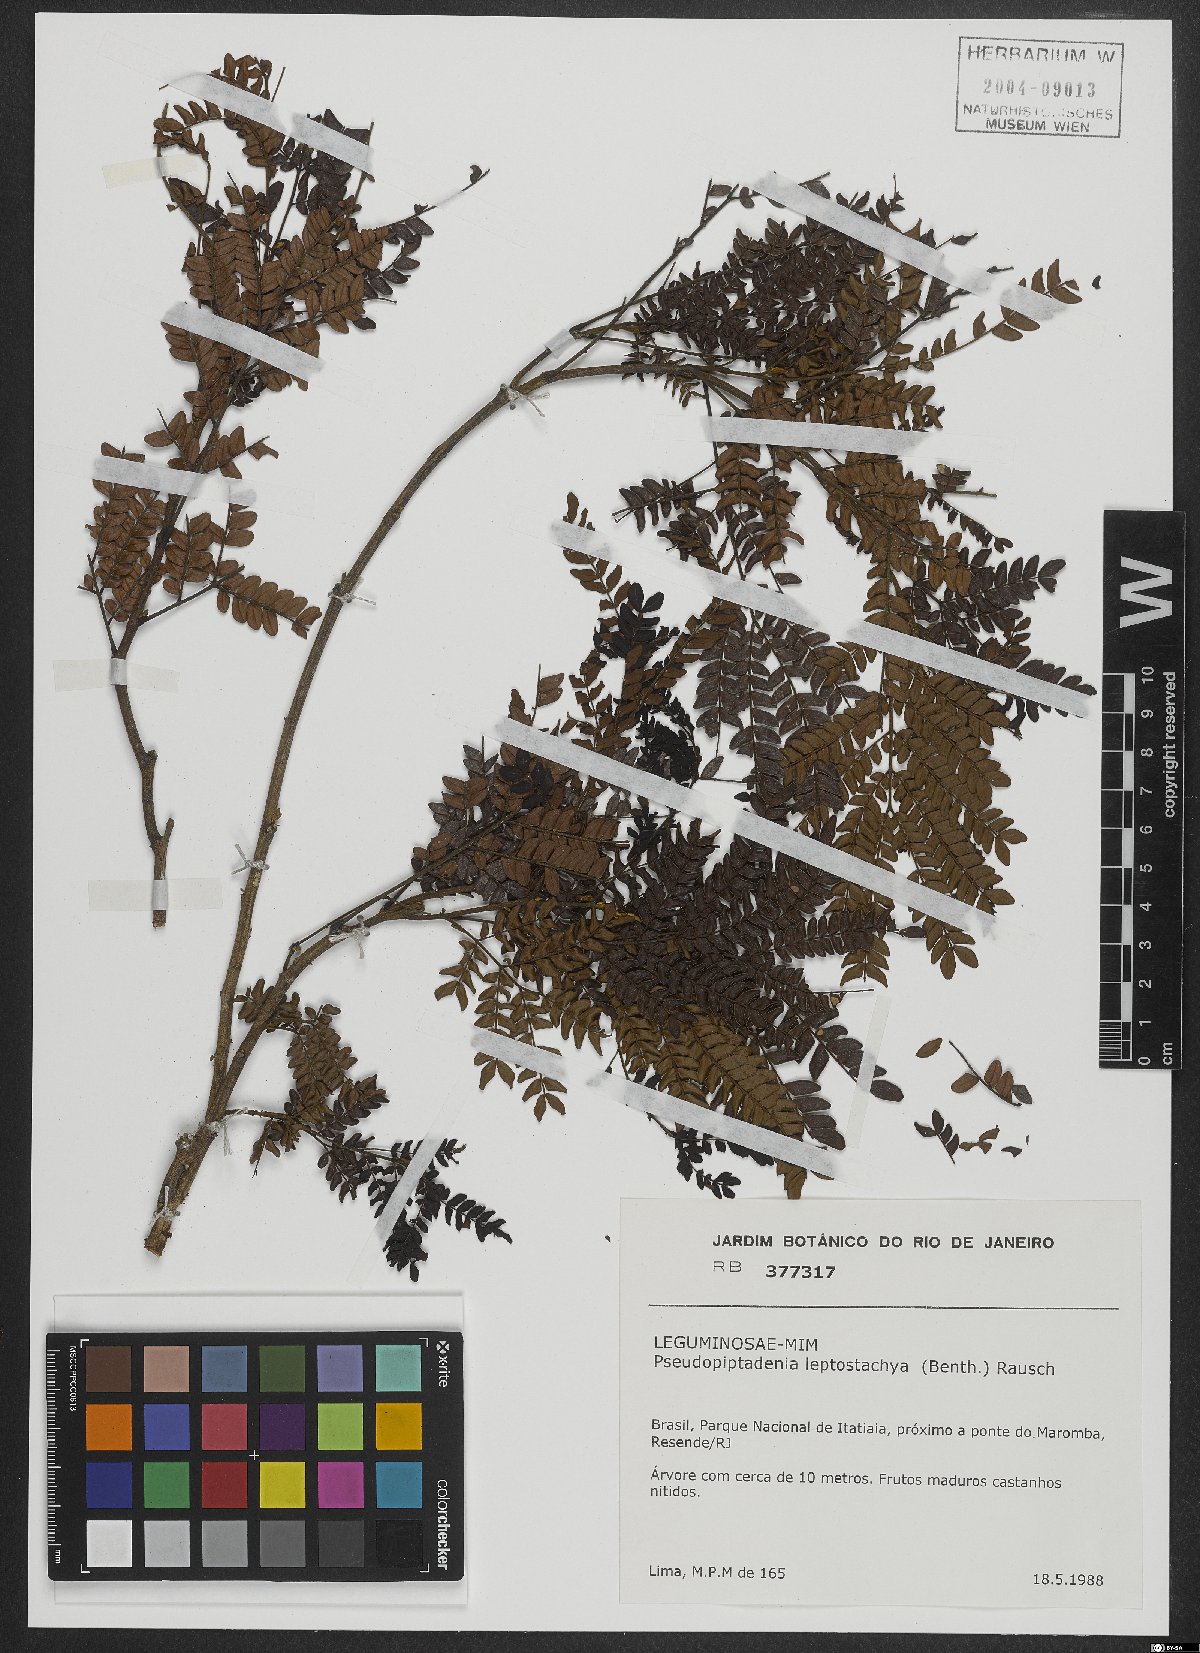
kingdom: Plantae
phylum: Tracheophyta
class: Magnoliopsida
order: Fabales
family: Fabaceae
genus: Pseudopiptadenia
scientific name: Pseudopiptadenia leptostachya
